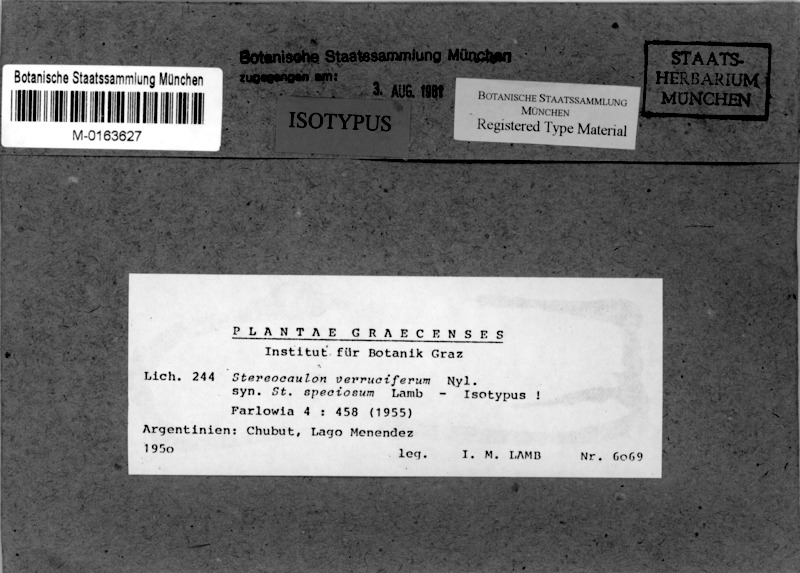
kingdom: Fungi
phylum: Ascomycota
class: Lecanoromycetes
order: Lecanorales
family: Stereocaulaceae
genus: Stereocaulon
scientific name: Stereocaulon verruciferum
